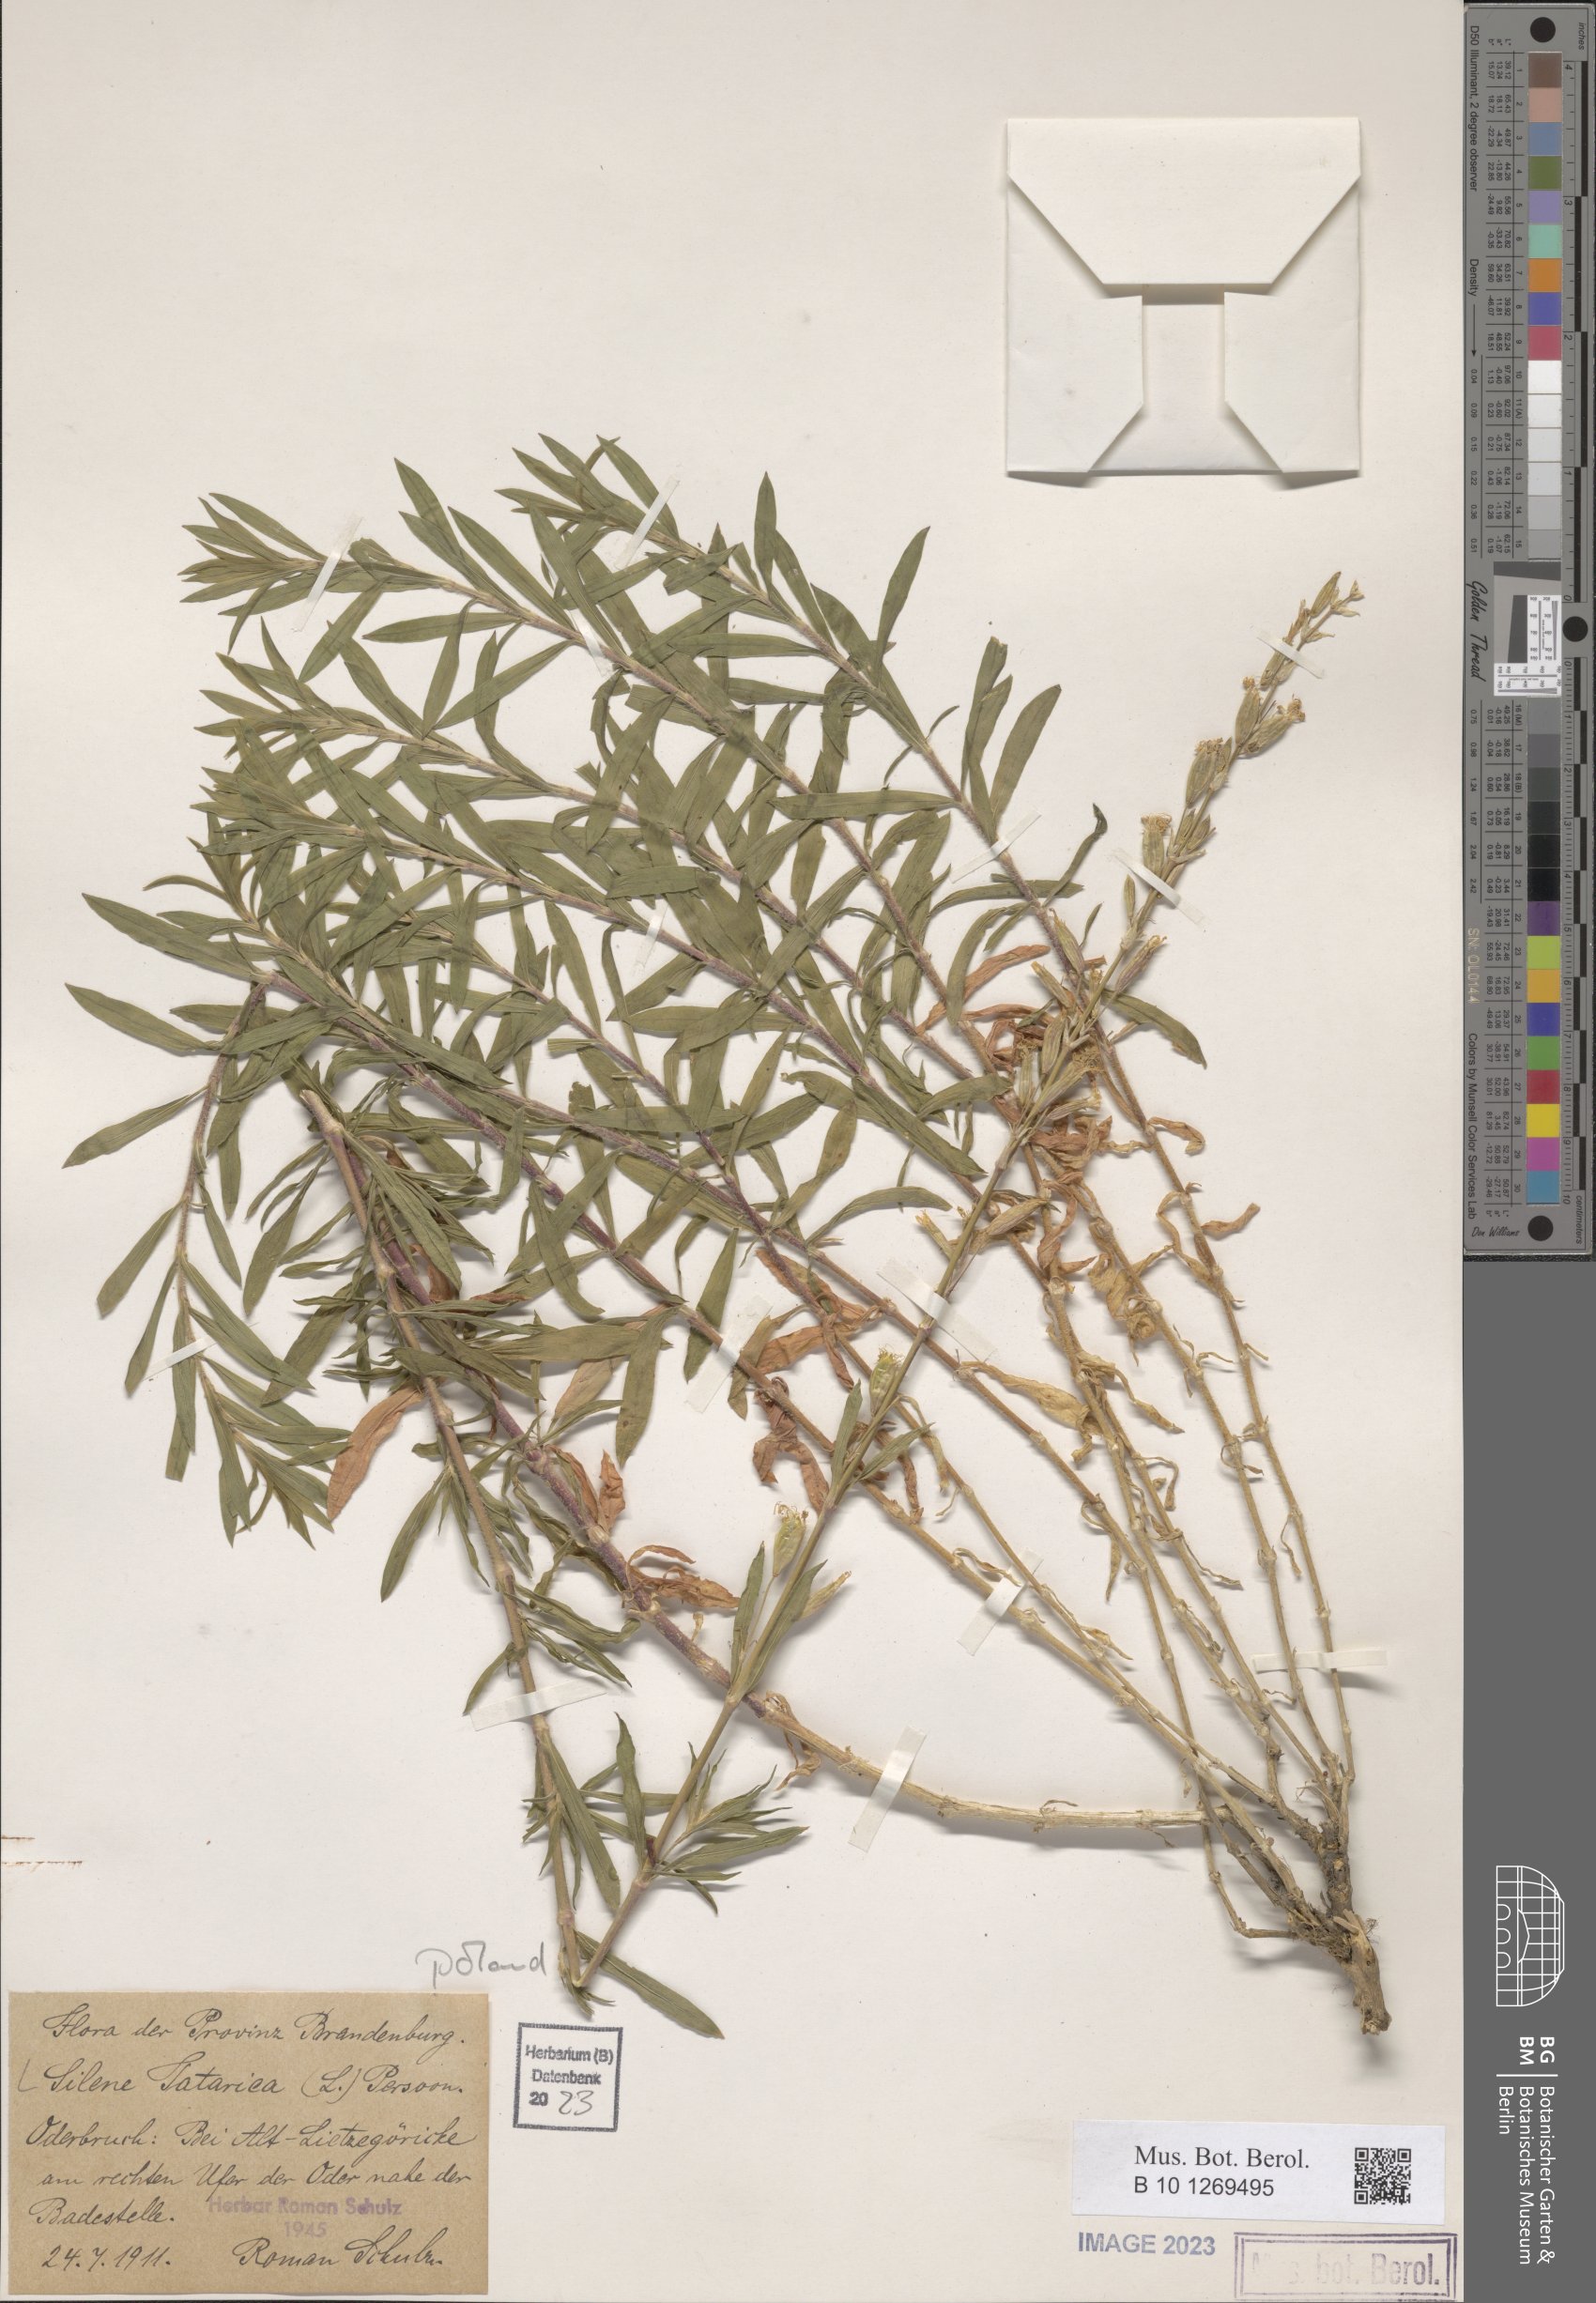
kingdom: Plantae
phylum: Tracheophyta
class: Magnoliopsida
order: Caryophyllales
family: Caryophyllaceae
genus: Silene
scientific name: Silene tatarica
